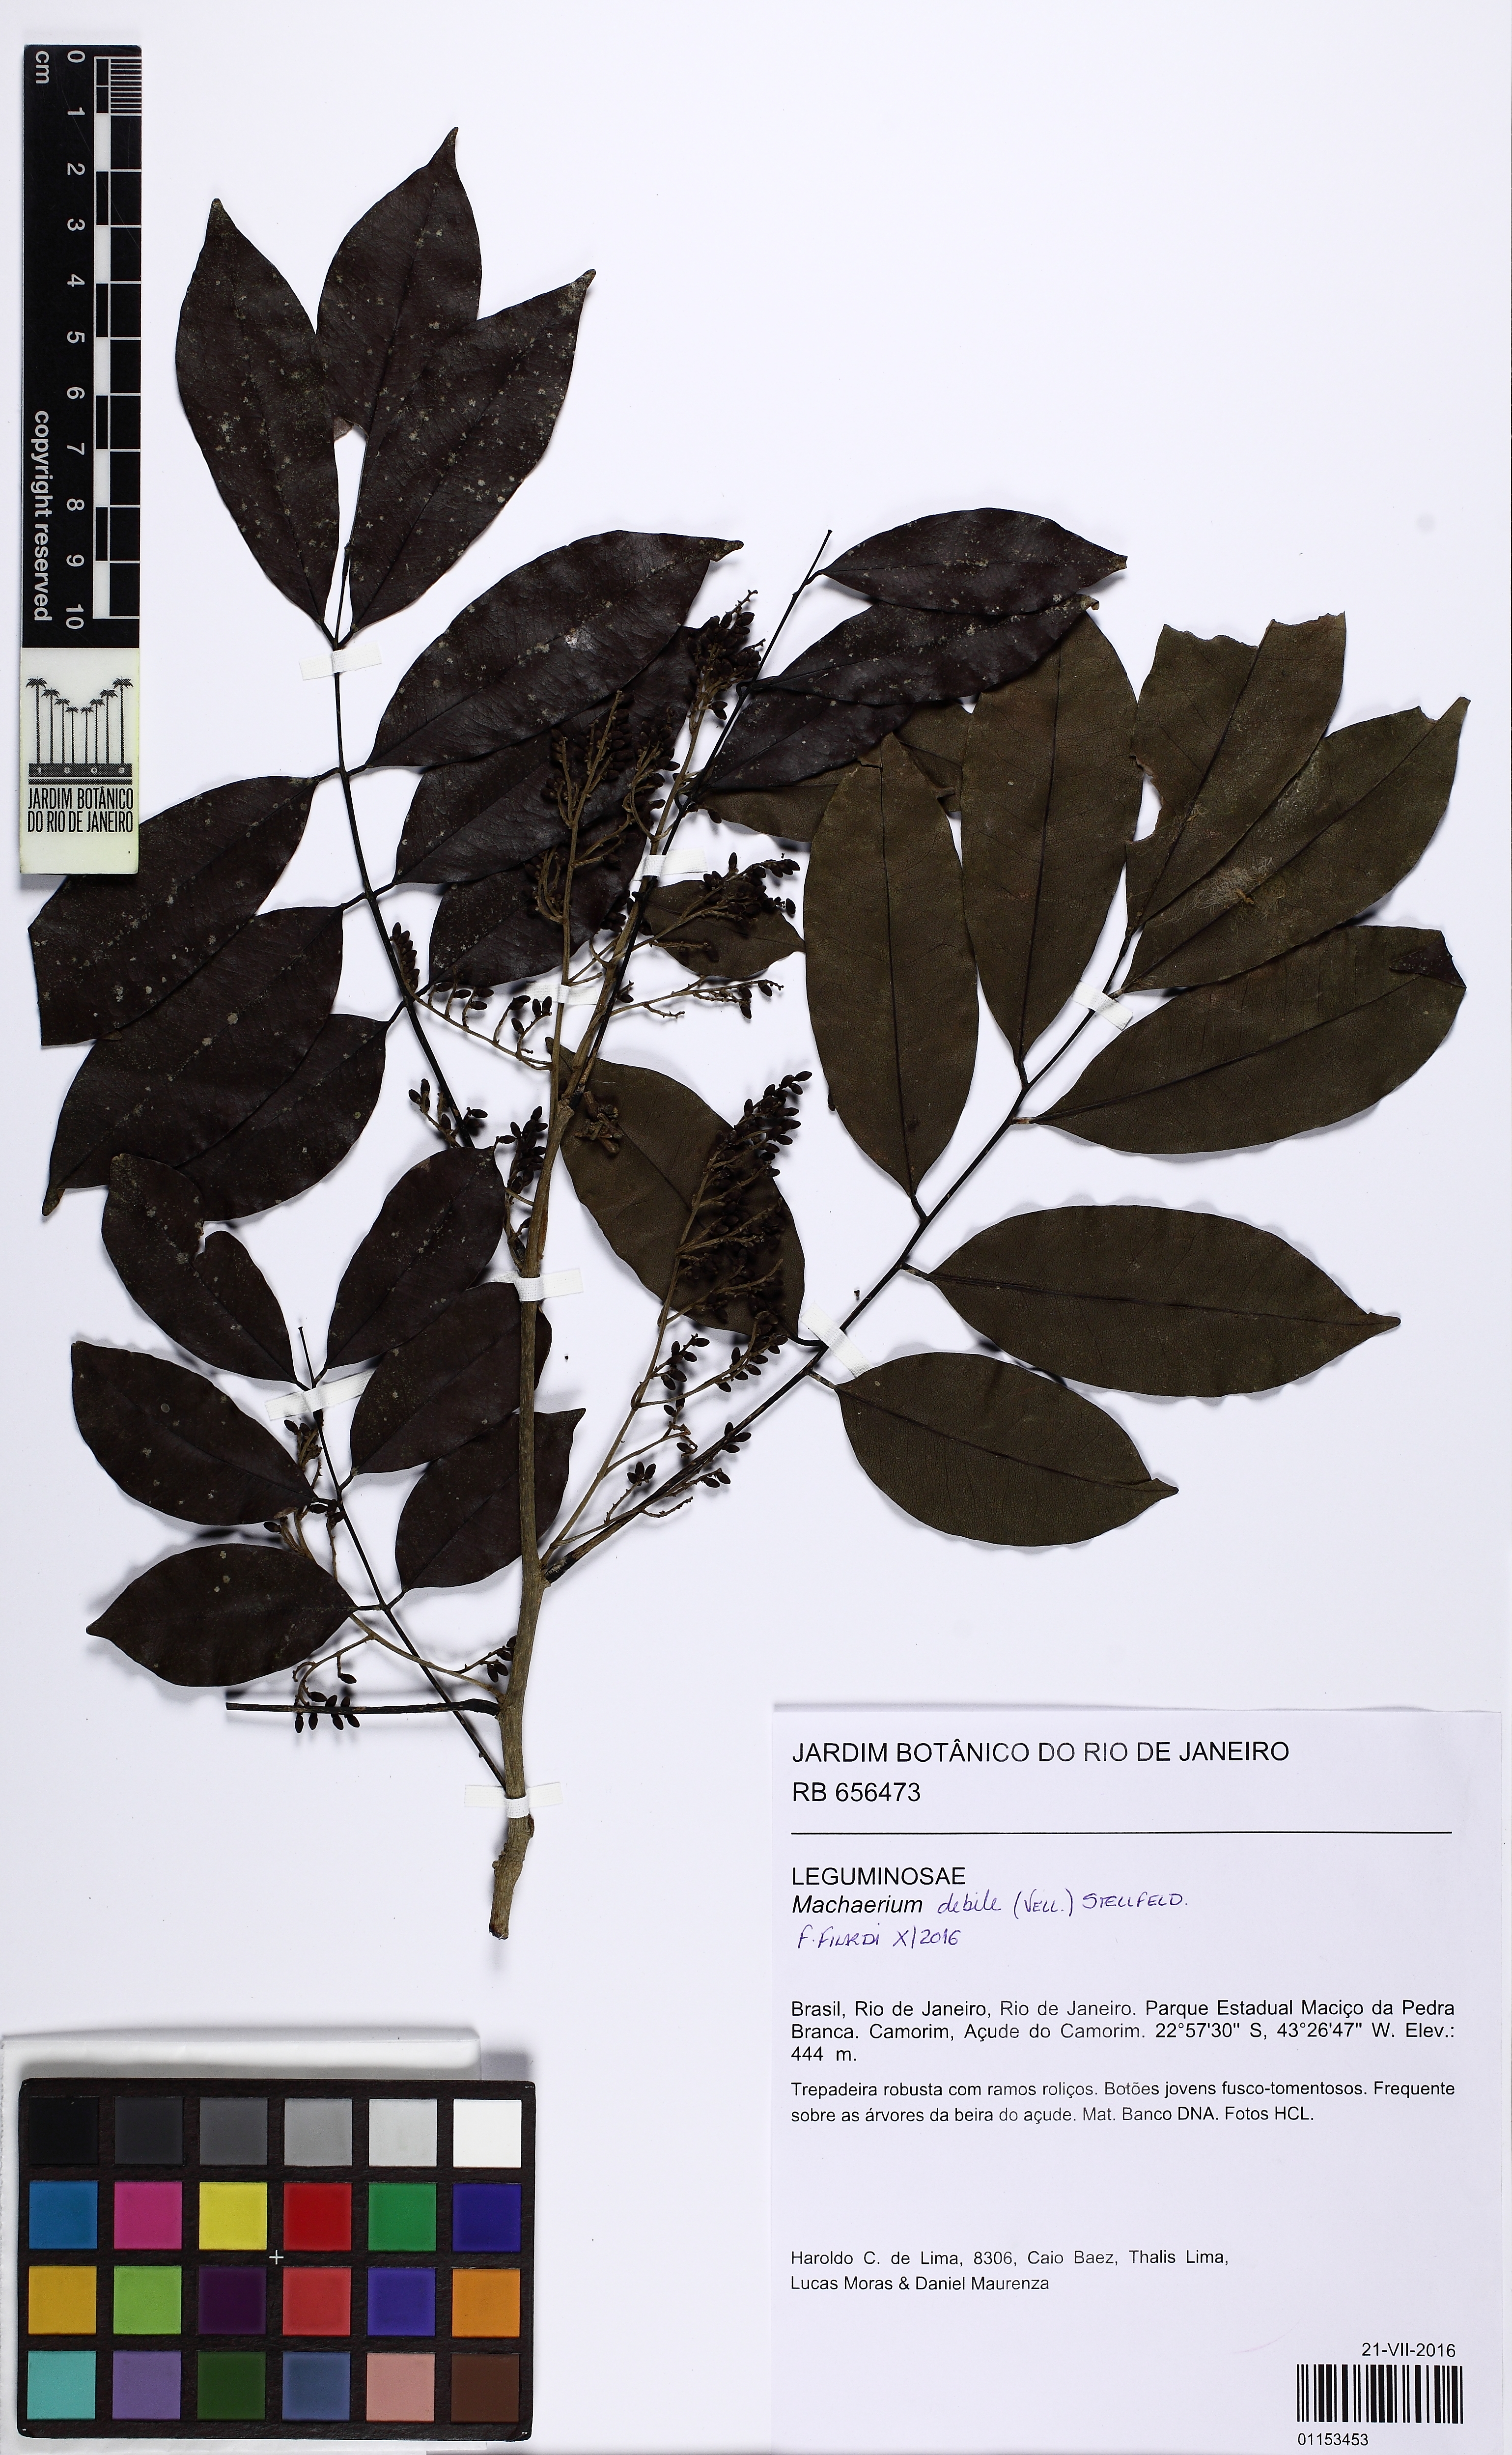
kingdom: Plantae
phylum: Tracheophyta
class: Magnoliopsida
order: Fabales
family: Fabaceae
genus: Machaerium
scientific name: Machaerium debile
